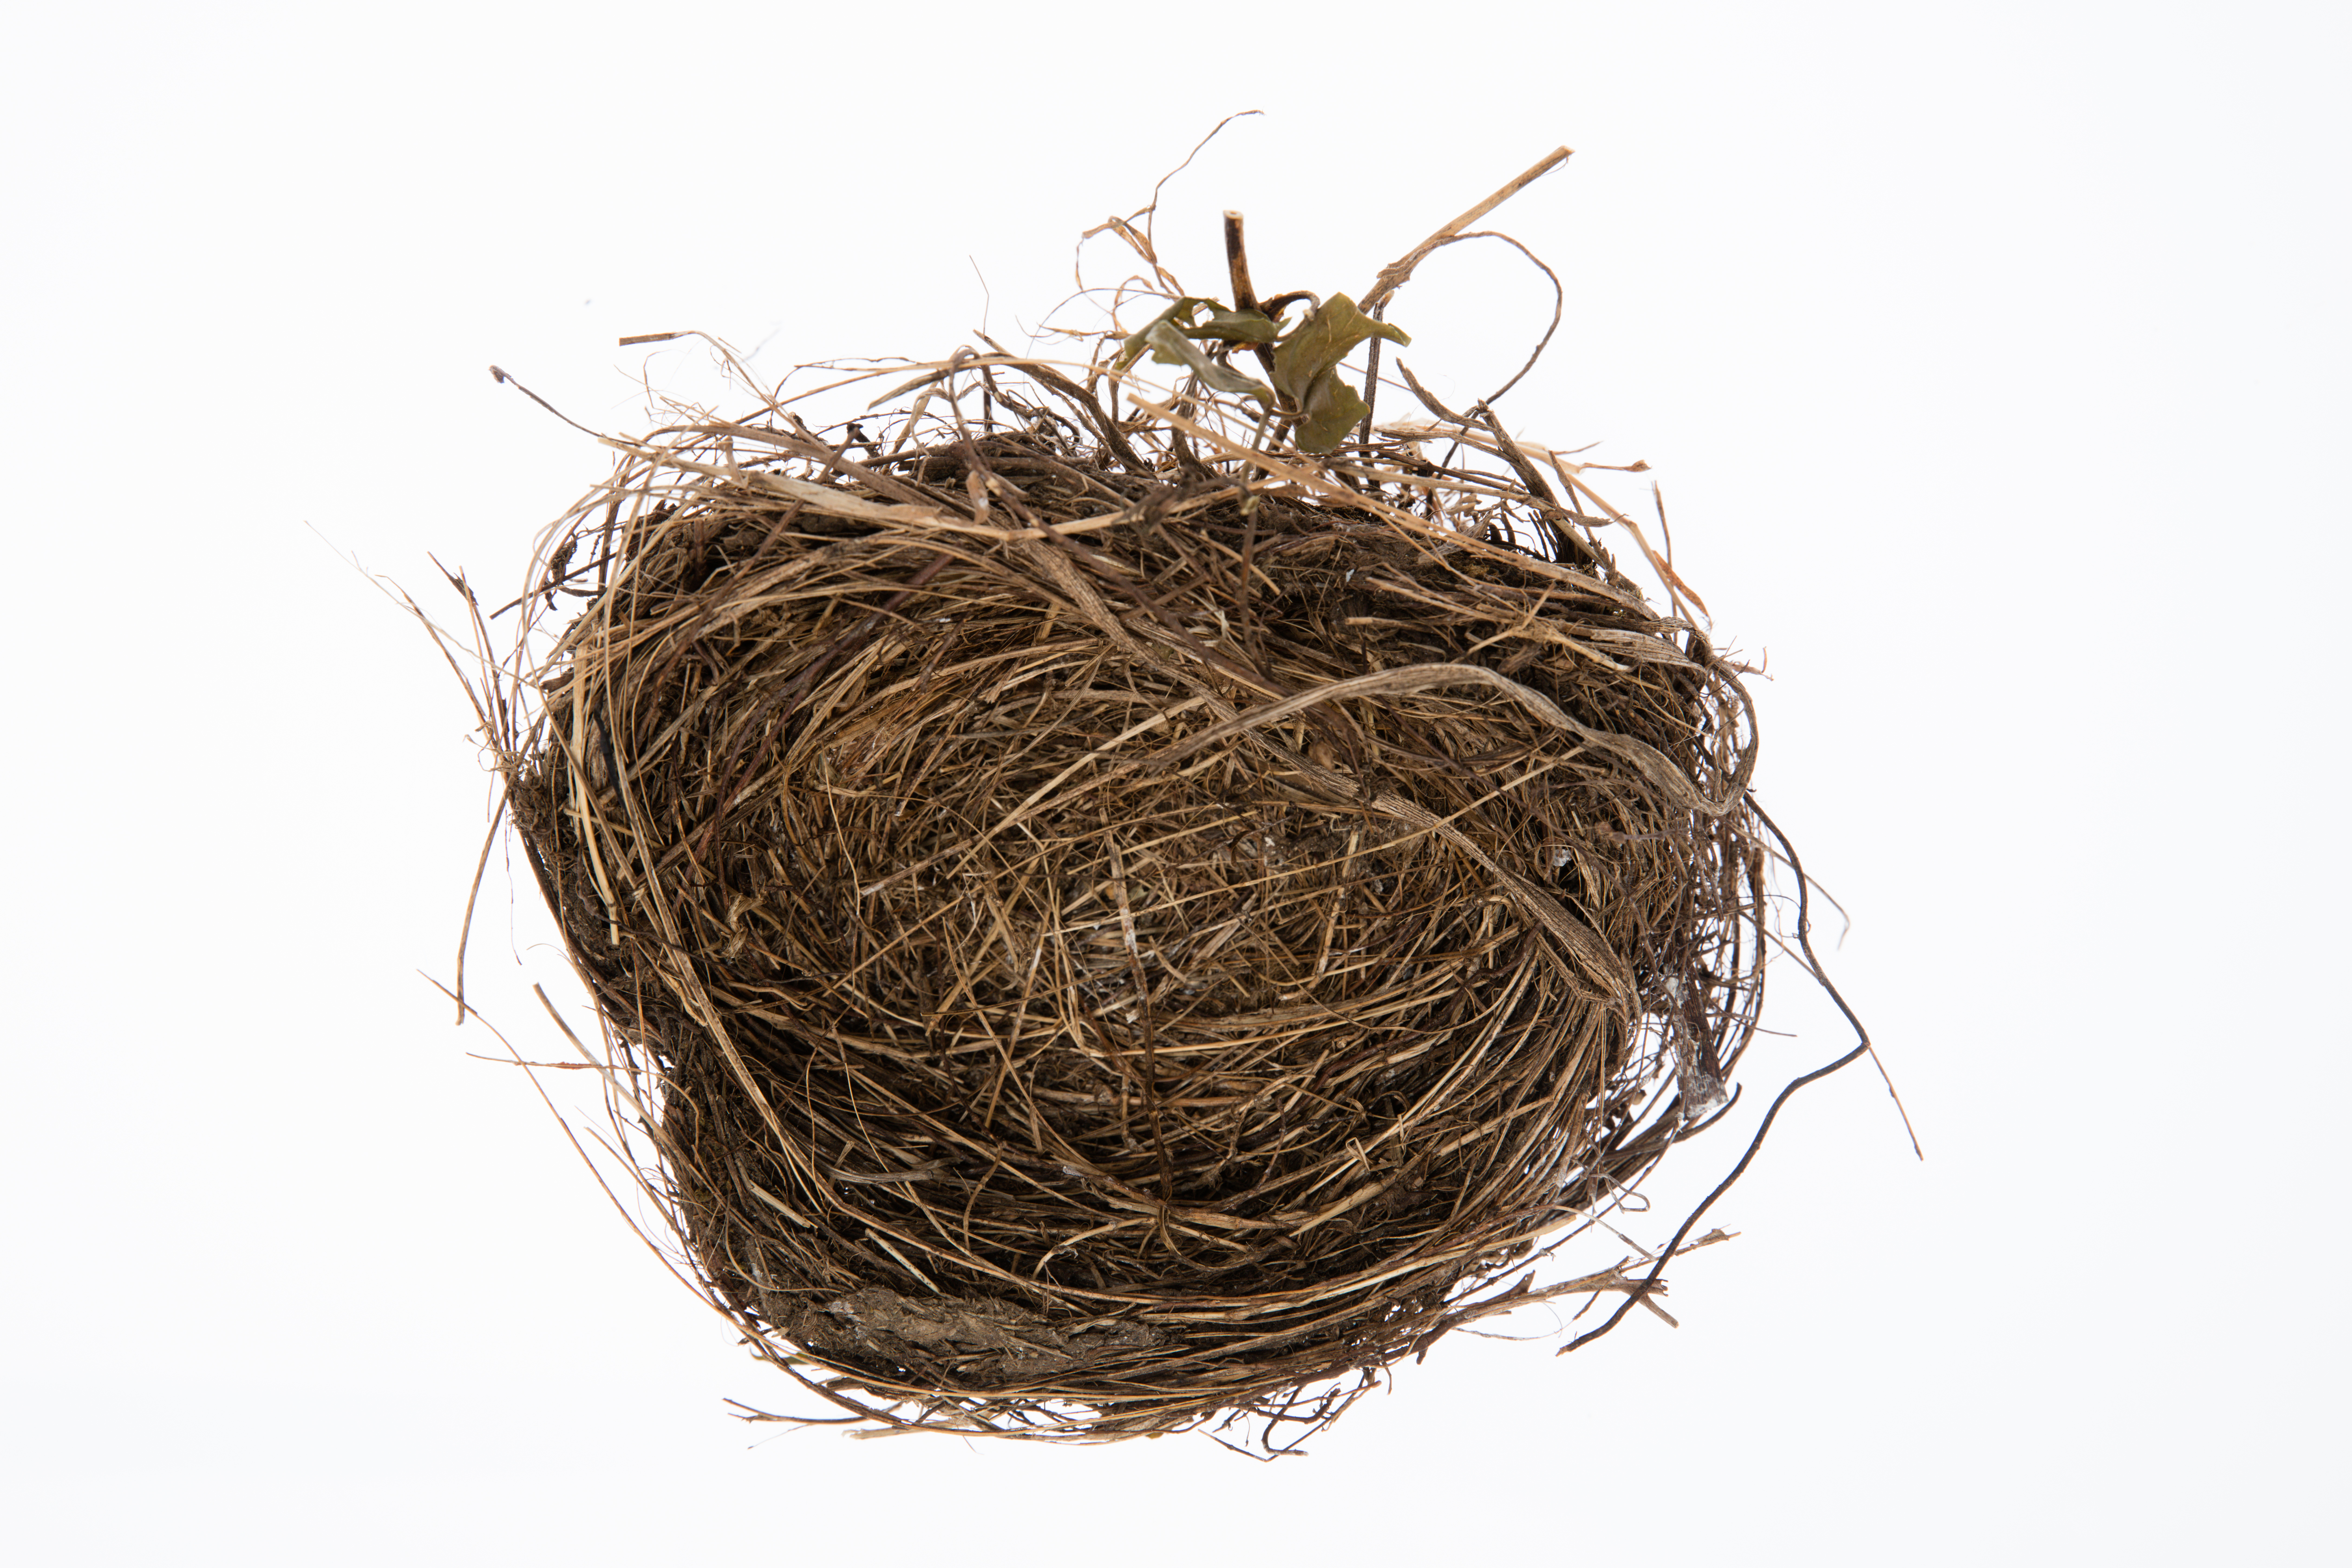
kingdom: Animalia
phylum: Chordata
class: Aves
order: Passeriformes
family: Turdidae
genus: Turdus
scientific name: Turdus merula
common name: Common blackbird
